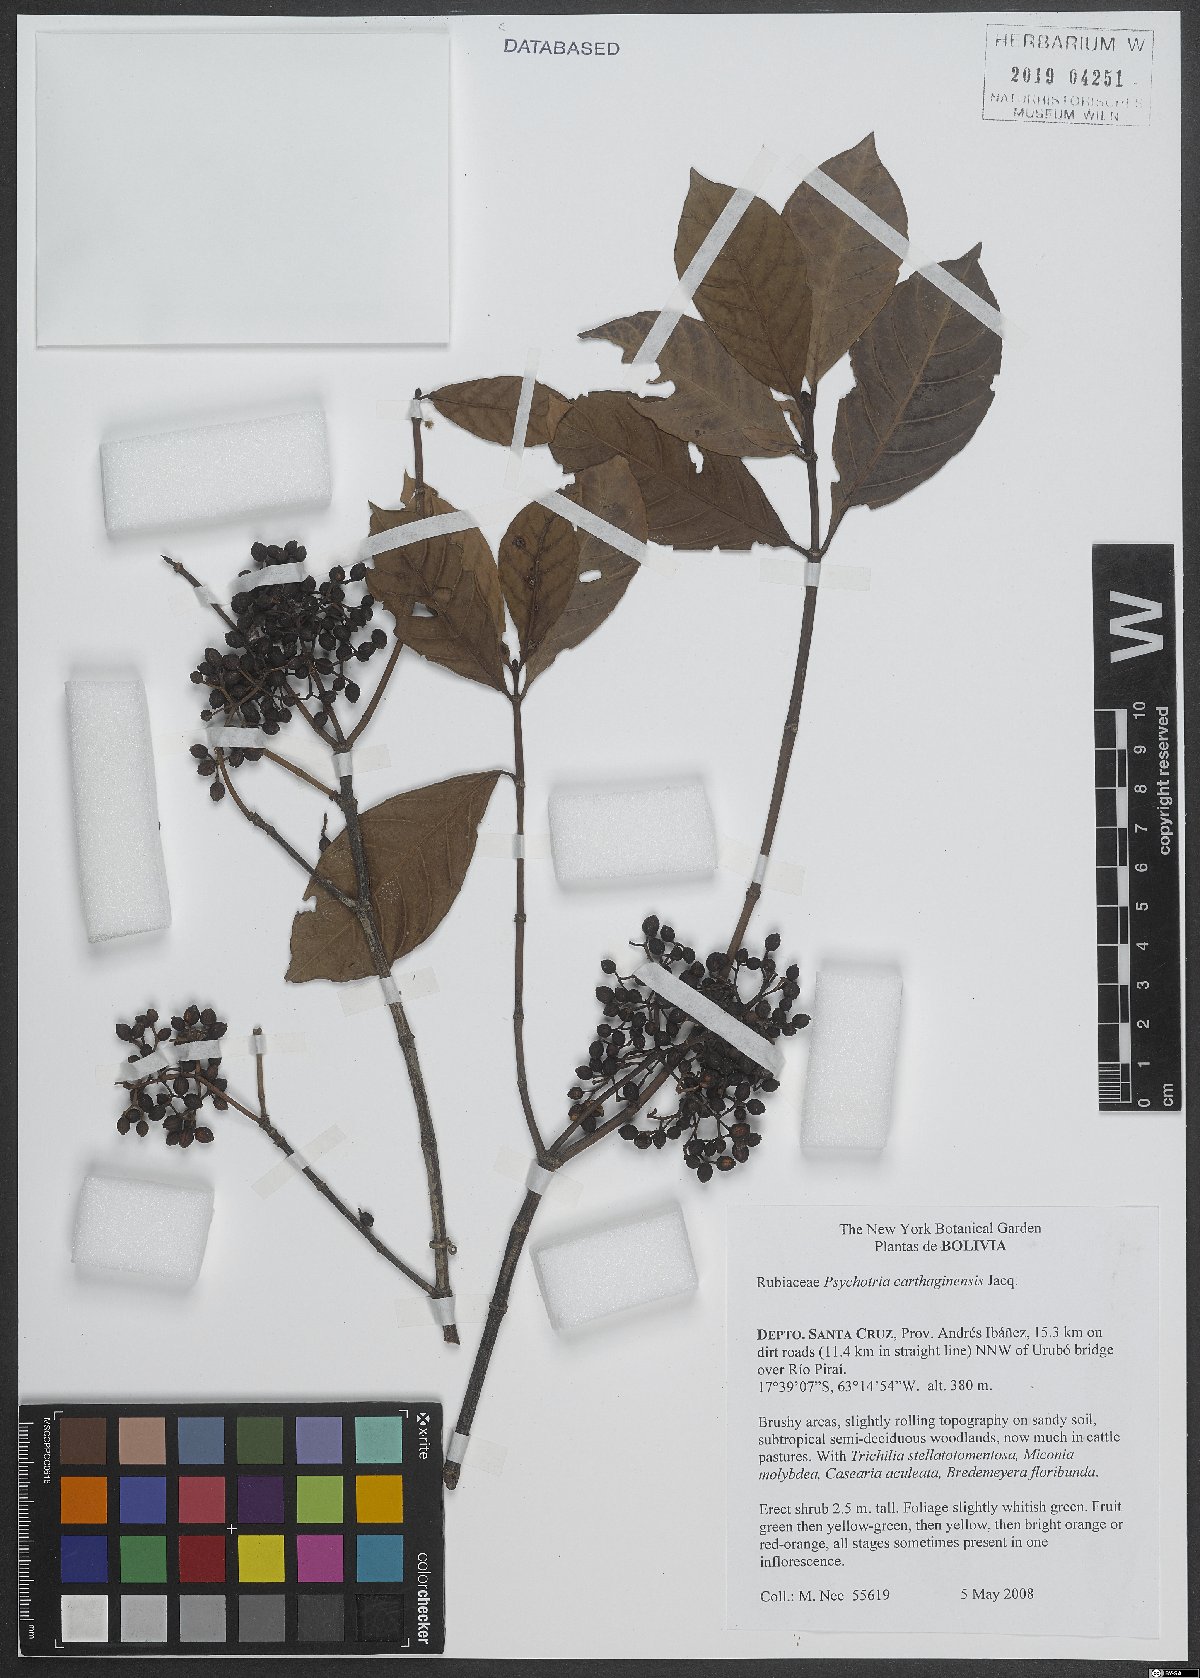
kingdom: Plantae
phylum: Tracheophyta
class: Magnoliopsida
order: Gentianales
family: Rubiaceae
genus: Psychotria
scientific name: Psychotria carthagenensis
